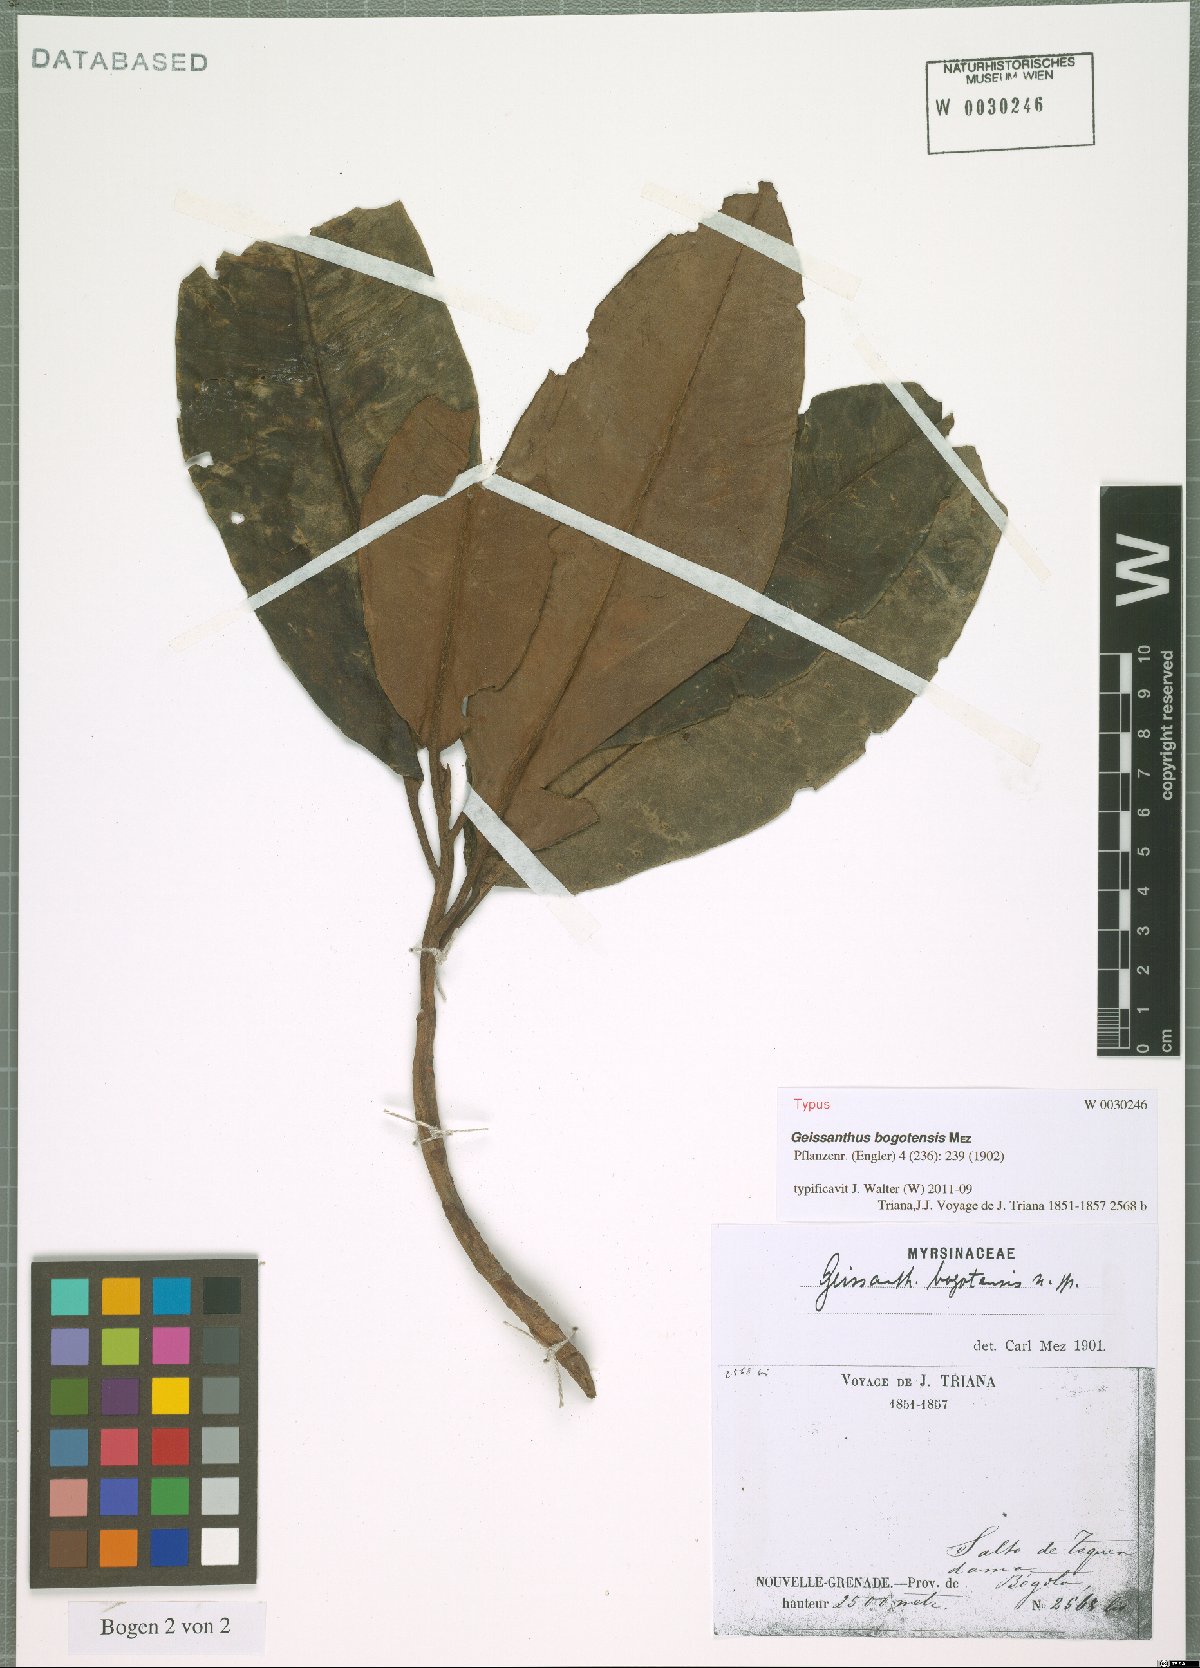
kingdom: Plantae
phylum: Tracheophyta
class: Magnoliopsida
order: Ericales
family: Primulaceae
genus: Geissanthus
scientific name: Geissanthus bogotensis
